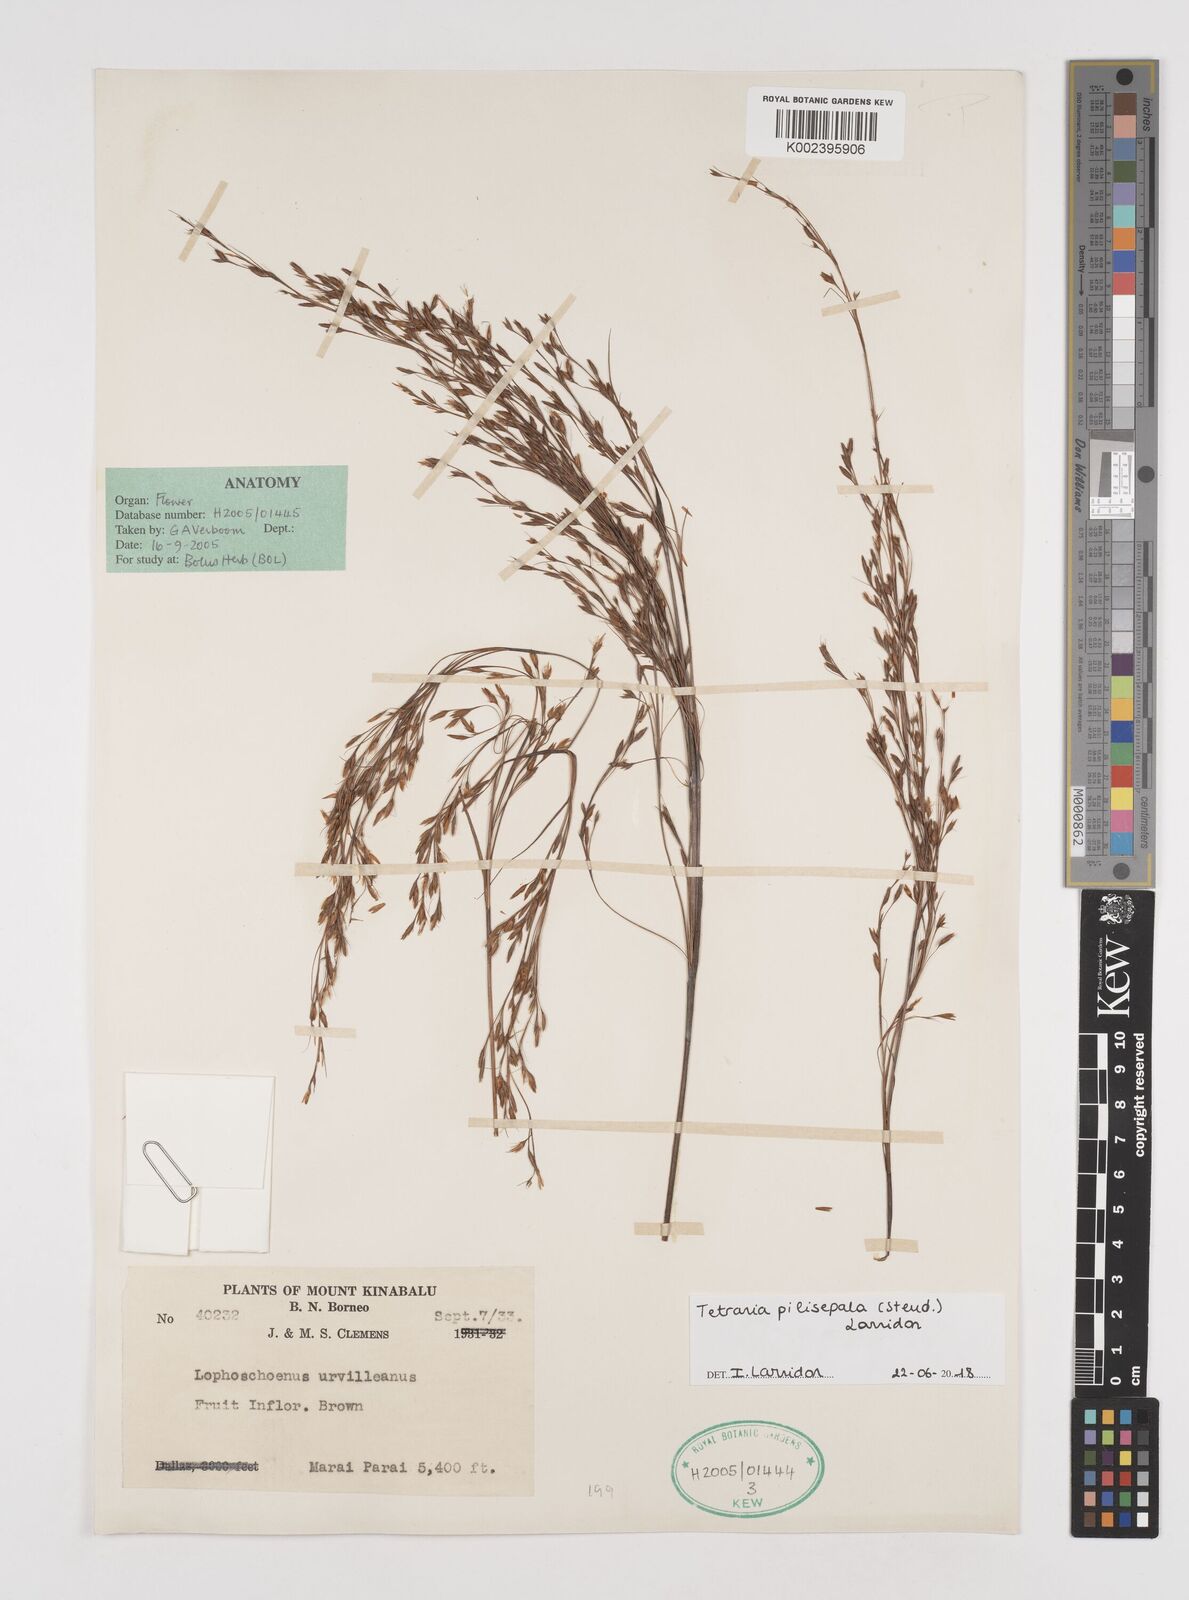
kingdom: Plantae
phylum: Tracheophyta
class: Liliopsida
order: Poales
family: Cyperaceae
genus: Tetraria
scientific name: Tetraria pilisepala
